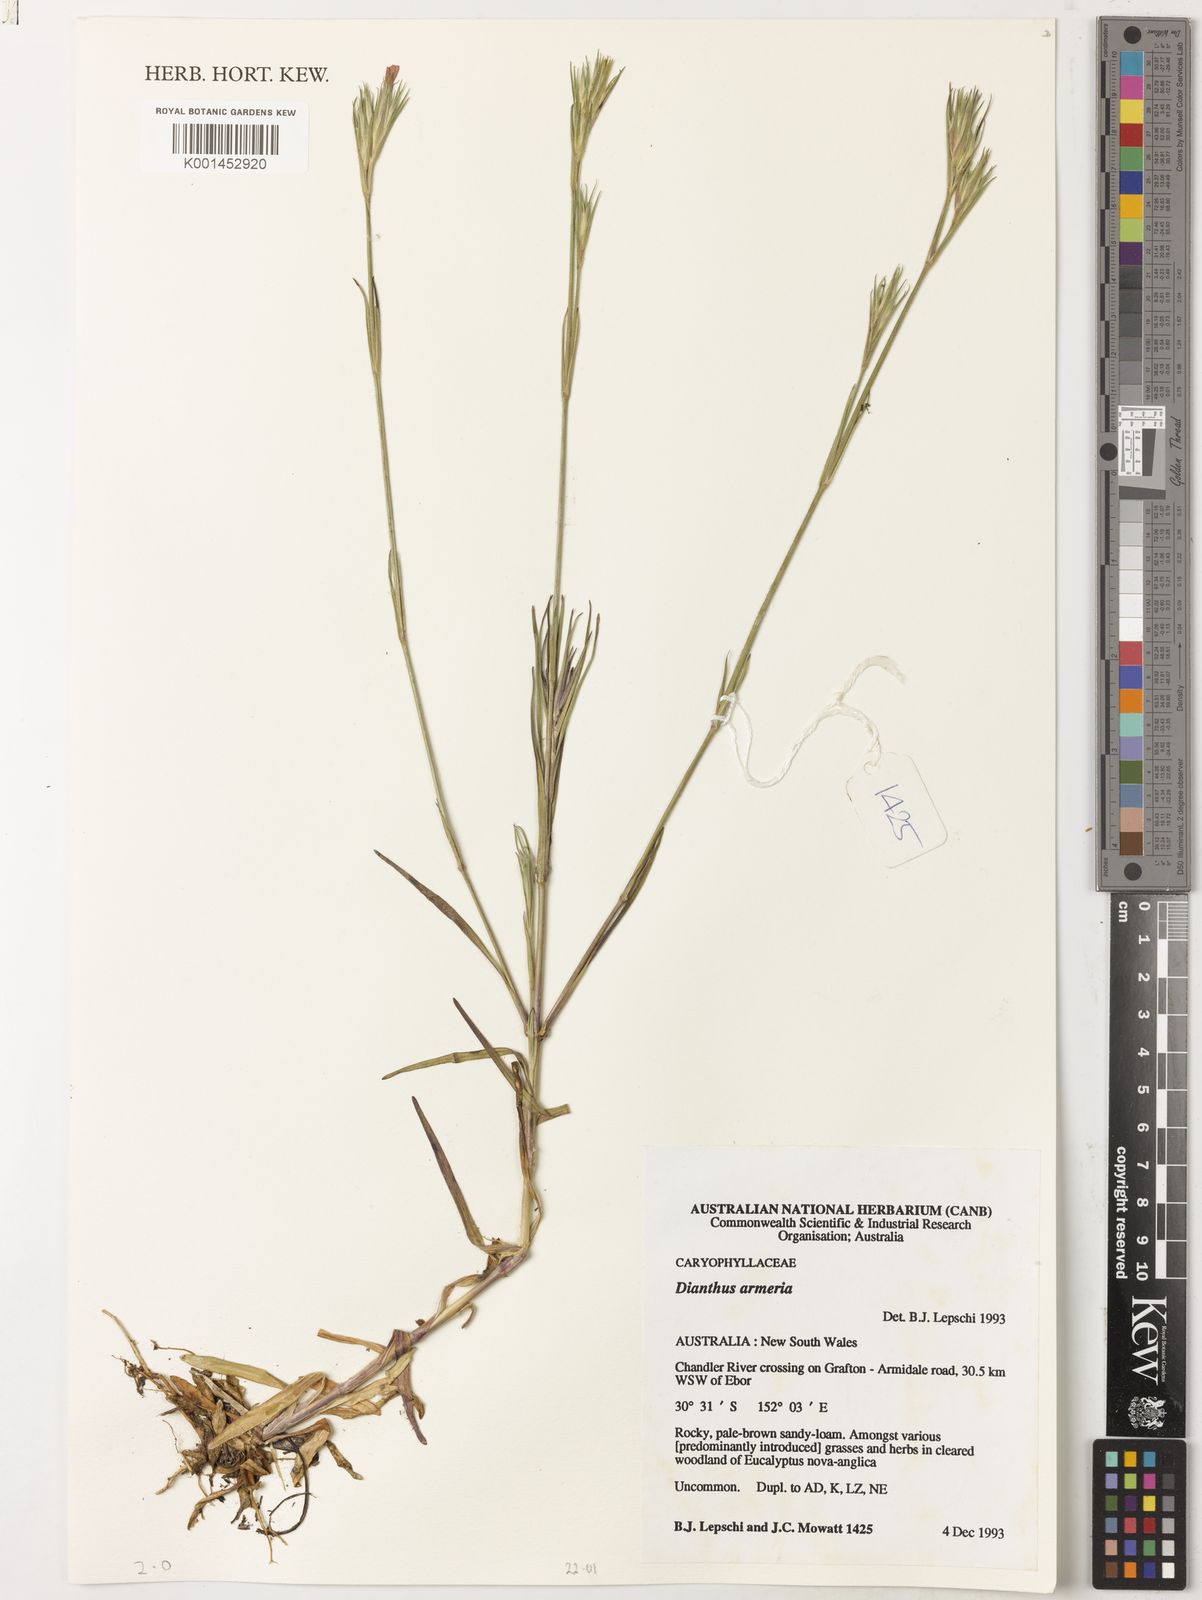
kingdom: Plantae
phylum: Tracheophyta
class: Magnoliopsida
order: Caryophyllales
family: Caryophyllaceae
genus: Dianthus
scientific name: Dianthus armeria
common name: Deptford pink
